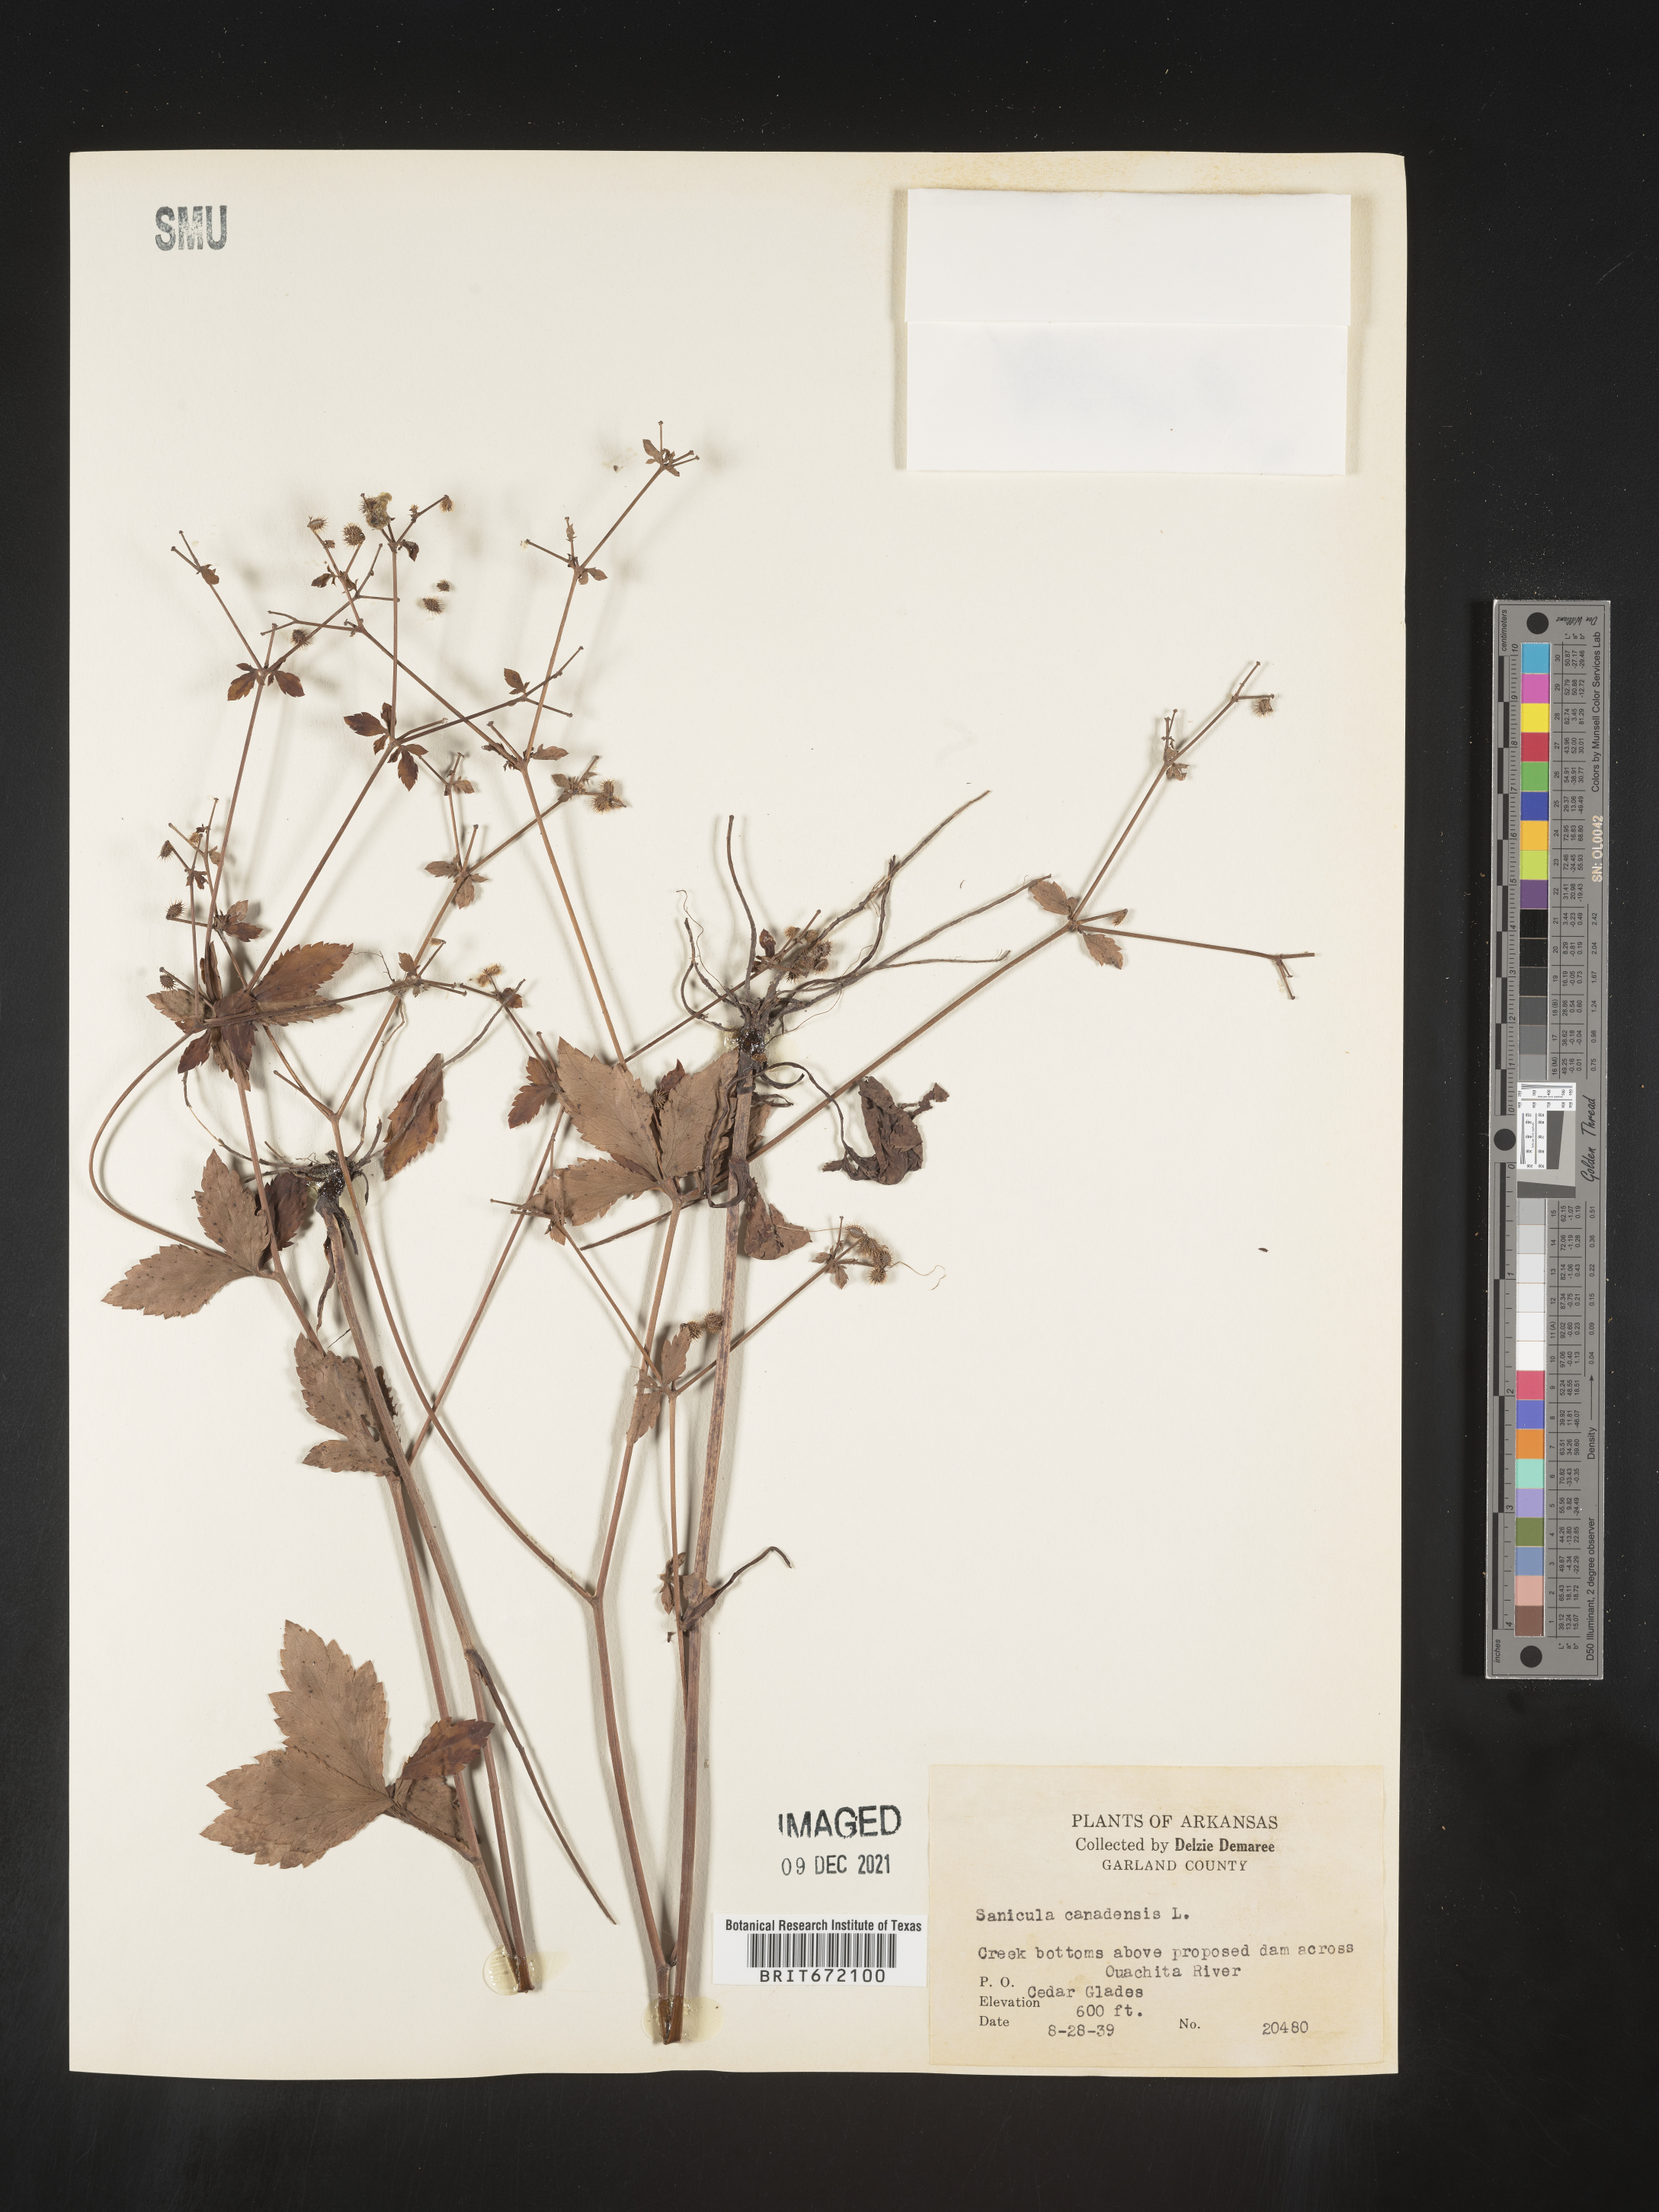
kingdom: Plantae
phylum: Tracheophyta
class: Magnoliopsida
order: Apiales
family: Apiaceae
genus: Sanicula
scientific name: Sanicula canadensis
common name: Canada sanicle
